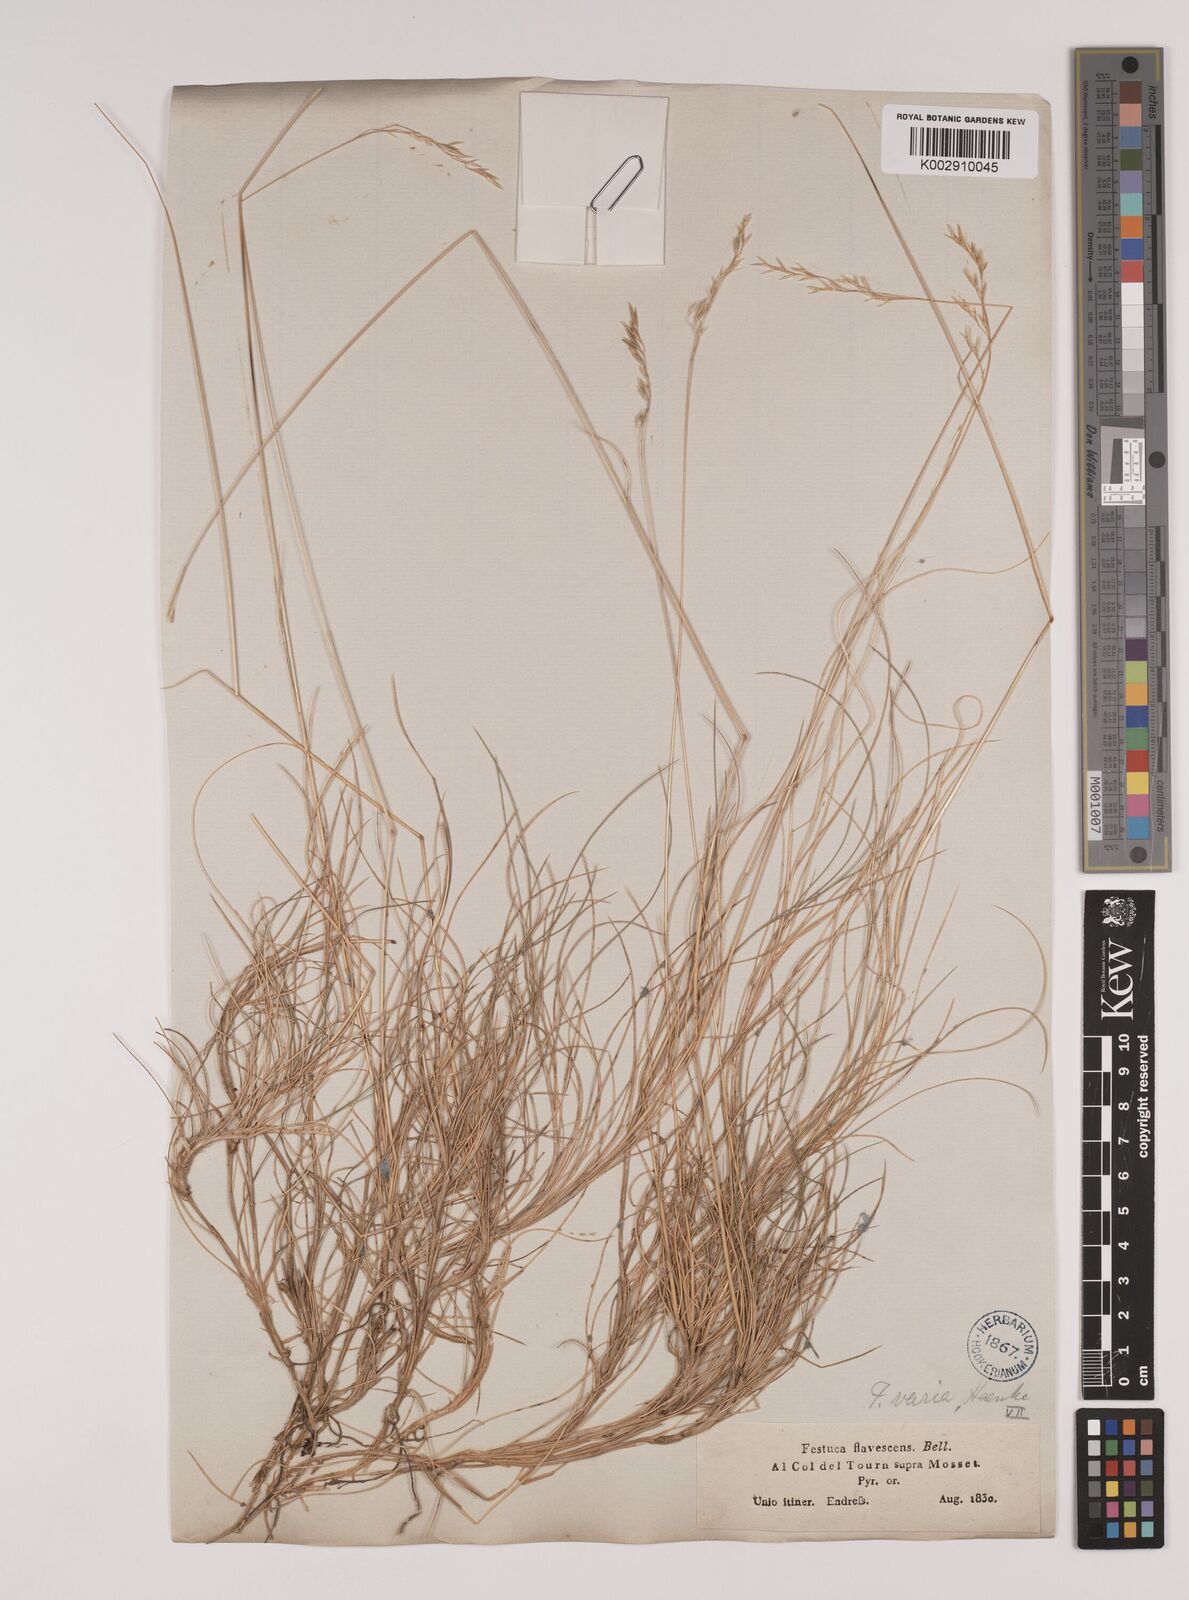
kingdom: Plantae
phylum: Tracheophyta
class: Liliopsida
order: Poales
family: Poaceae
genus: Festuca
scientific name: Festuca gautieri
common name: Spiky fescue
